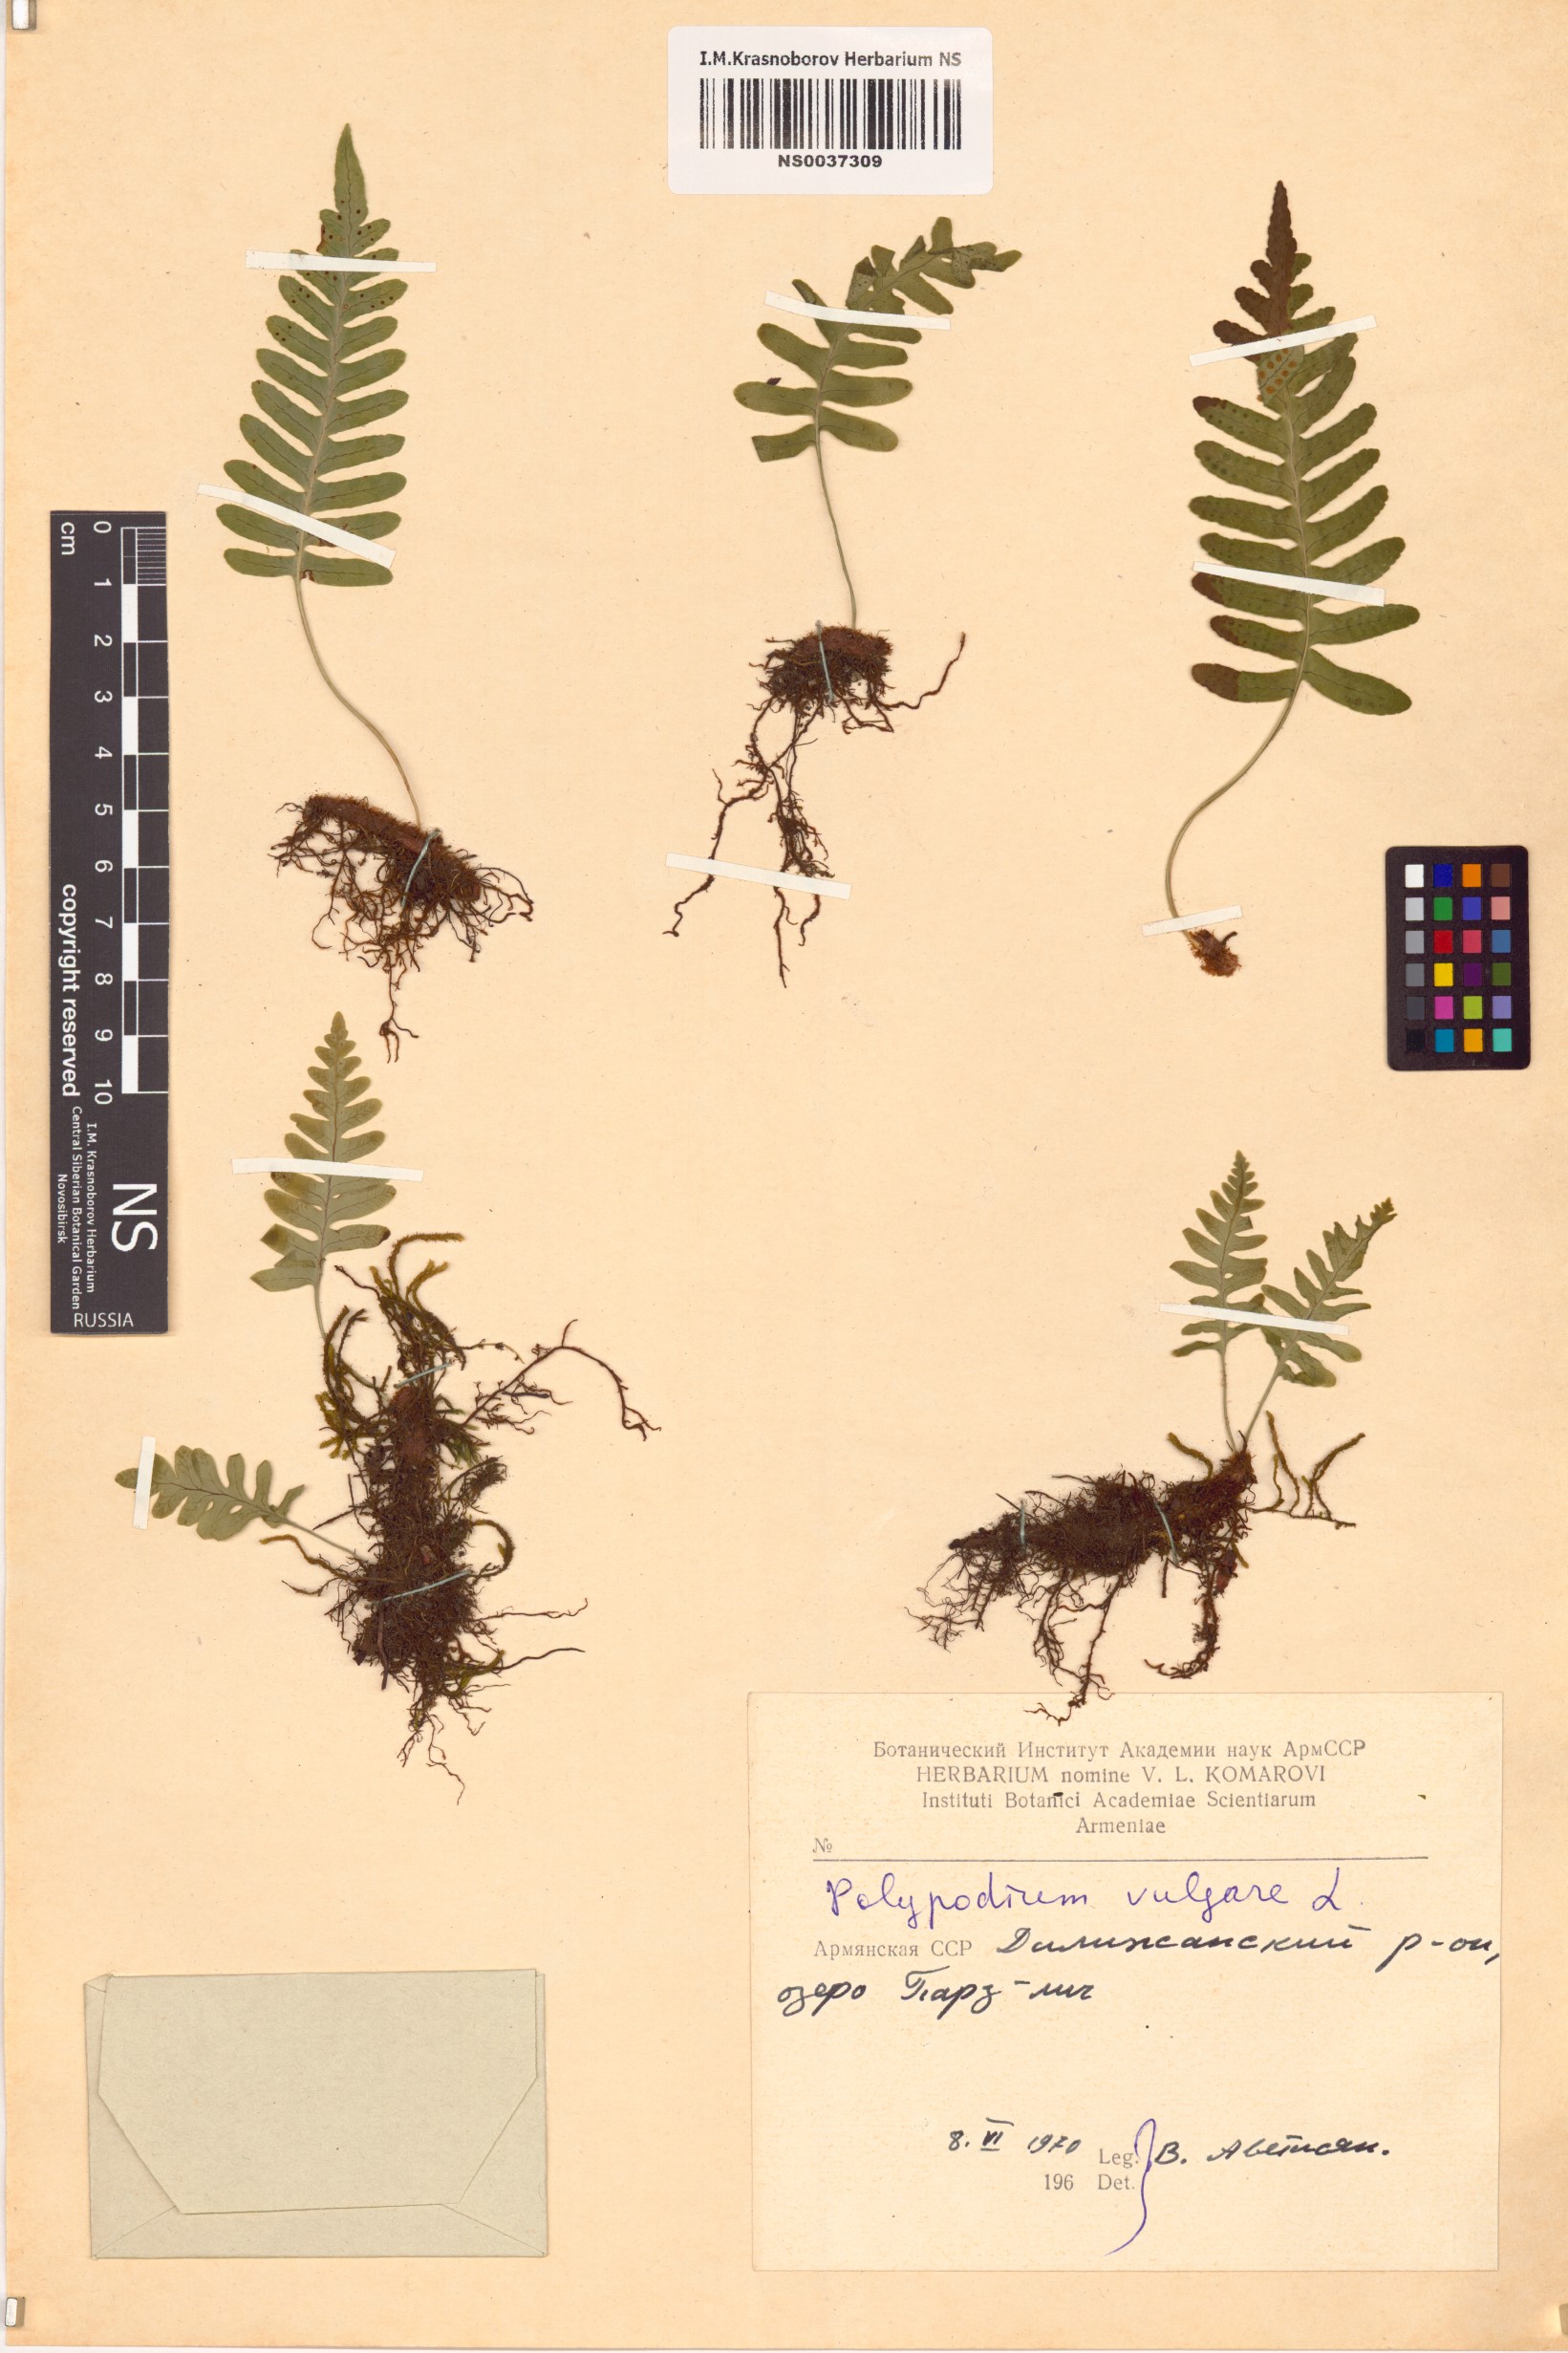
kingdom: Plantae
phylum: Tracheophyta
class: Polypodiopsida
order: Polypodiales
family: Polypodiaceae
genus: Polypodium
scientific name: Polypodium vulgare
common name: Common polypody
